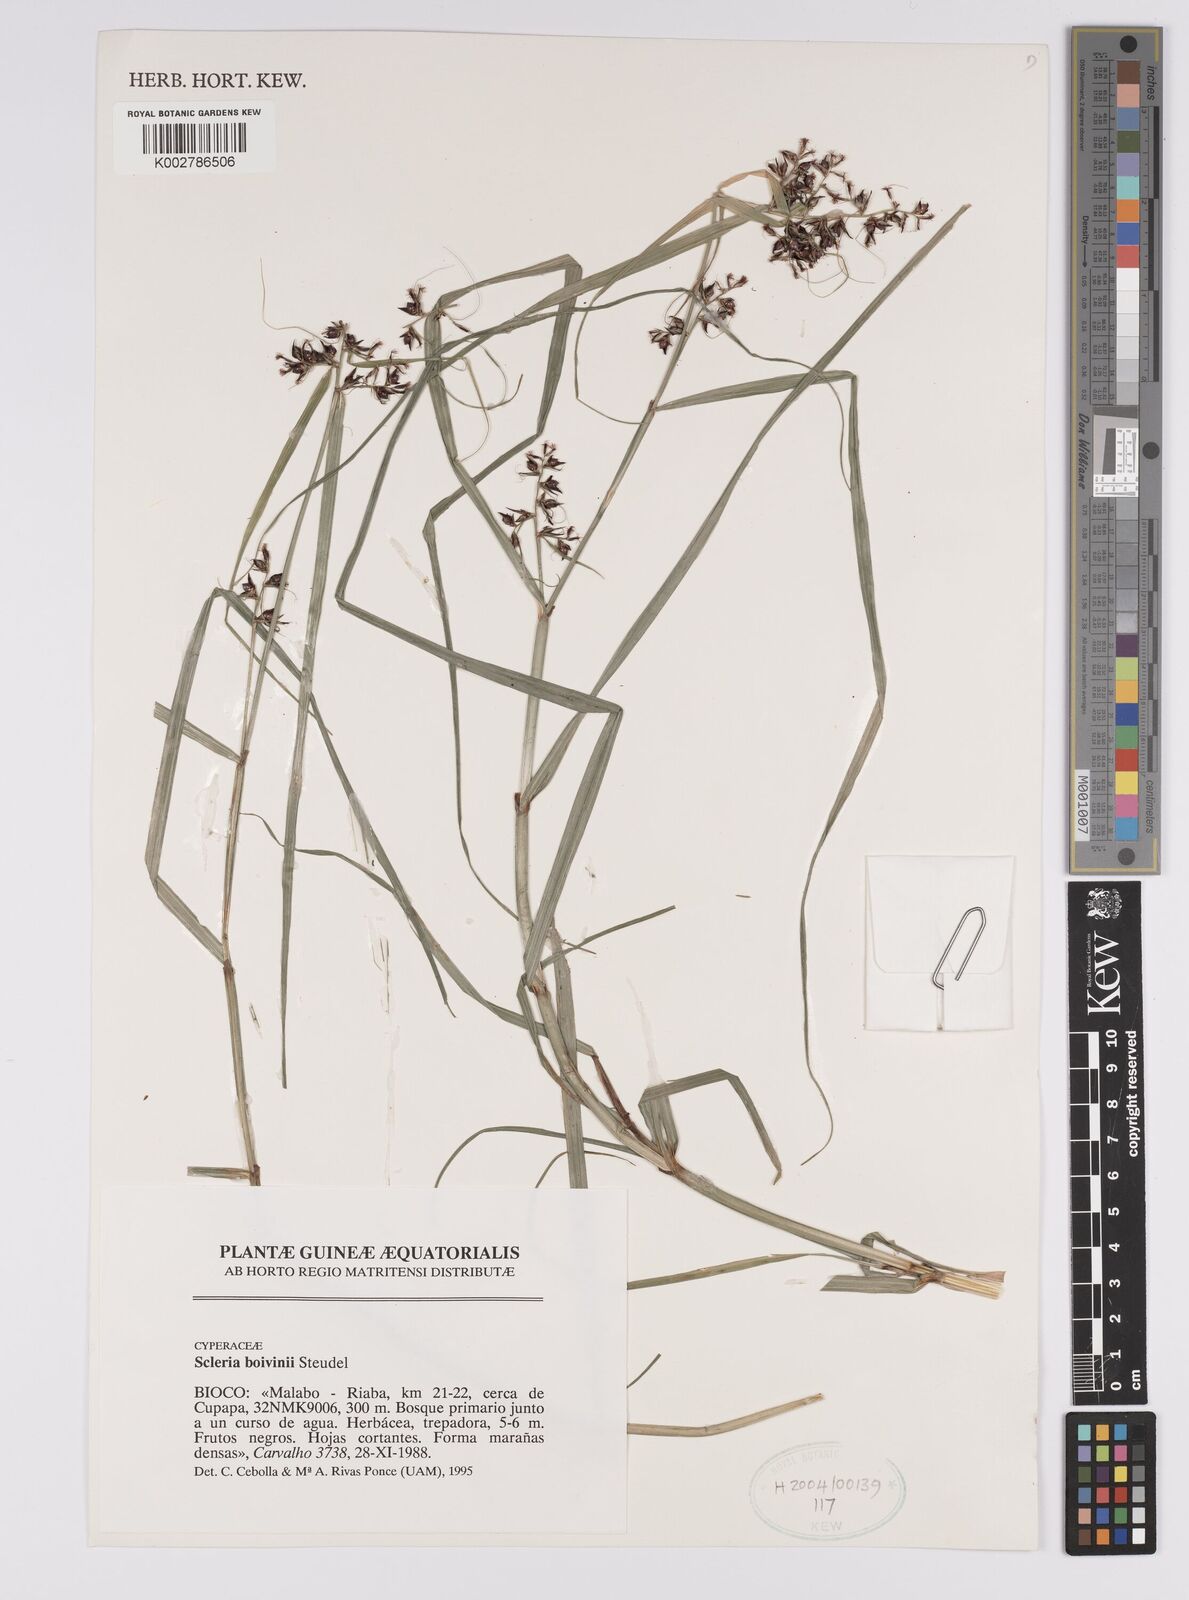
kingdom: Plantae
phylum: Tracheophyta
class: Liliopsida
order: Poales
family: Cyperaceae
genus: Scleria
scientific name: Scleria boivinii
